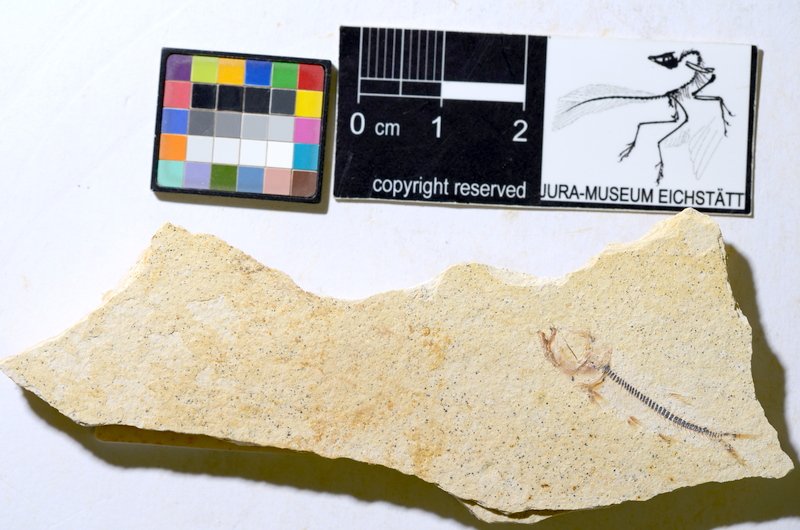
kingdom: Animalia
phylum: Chordata
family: Ascalaboidae
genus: Ebertichthys
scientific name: Ebertichthys ettlingensis
